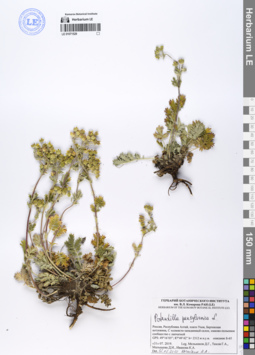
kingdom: Plantae
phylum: Tracheophyta
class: Magnoliopsida
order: Rosales
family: Rosaceae
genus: Potentilla
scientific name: Potentilla pensylvanica
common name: Pennsylvania cinquefoil
